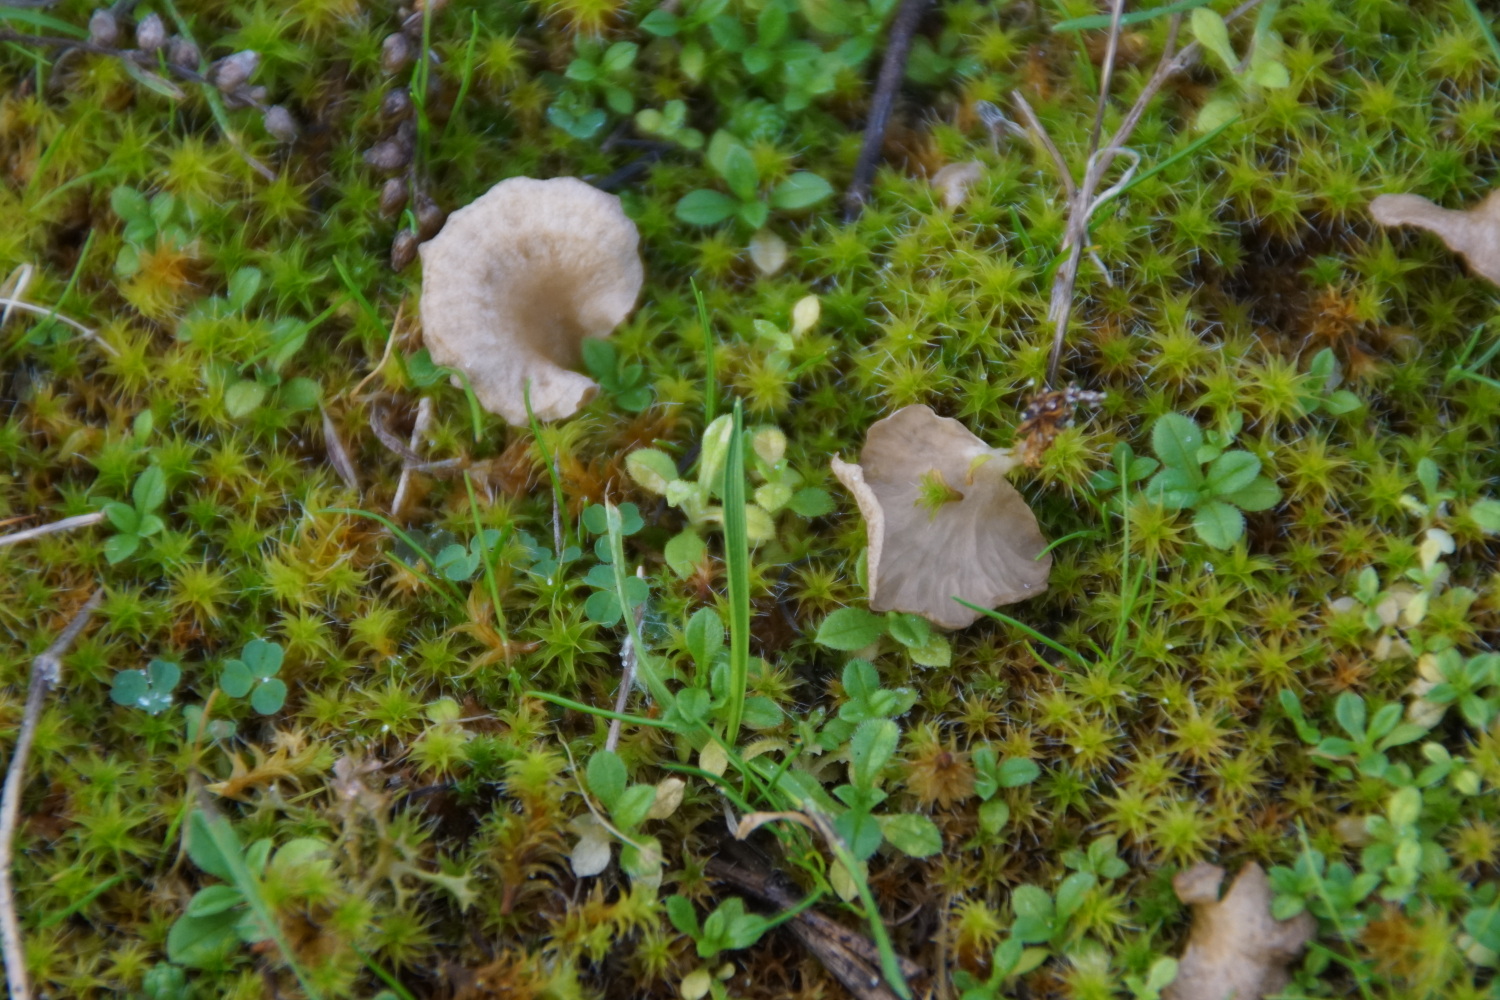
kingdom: Fungi
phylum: Basidiomycota
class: Agaricomycetes
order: Agaricales
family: Hygrophoraceae
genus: Arrhenia
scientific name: Arrhenia spathulata
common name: skæv fontænehat
